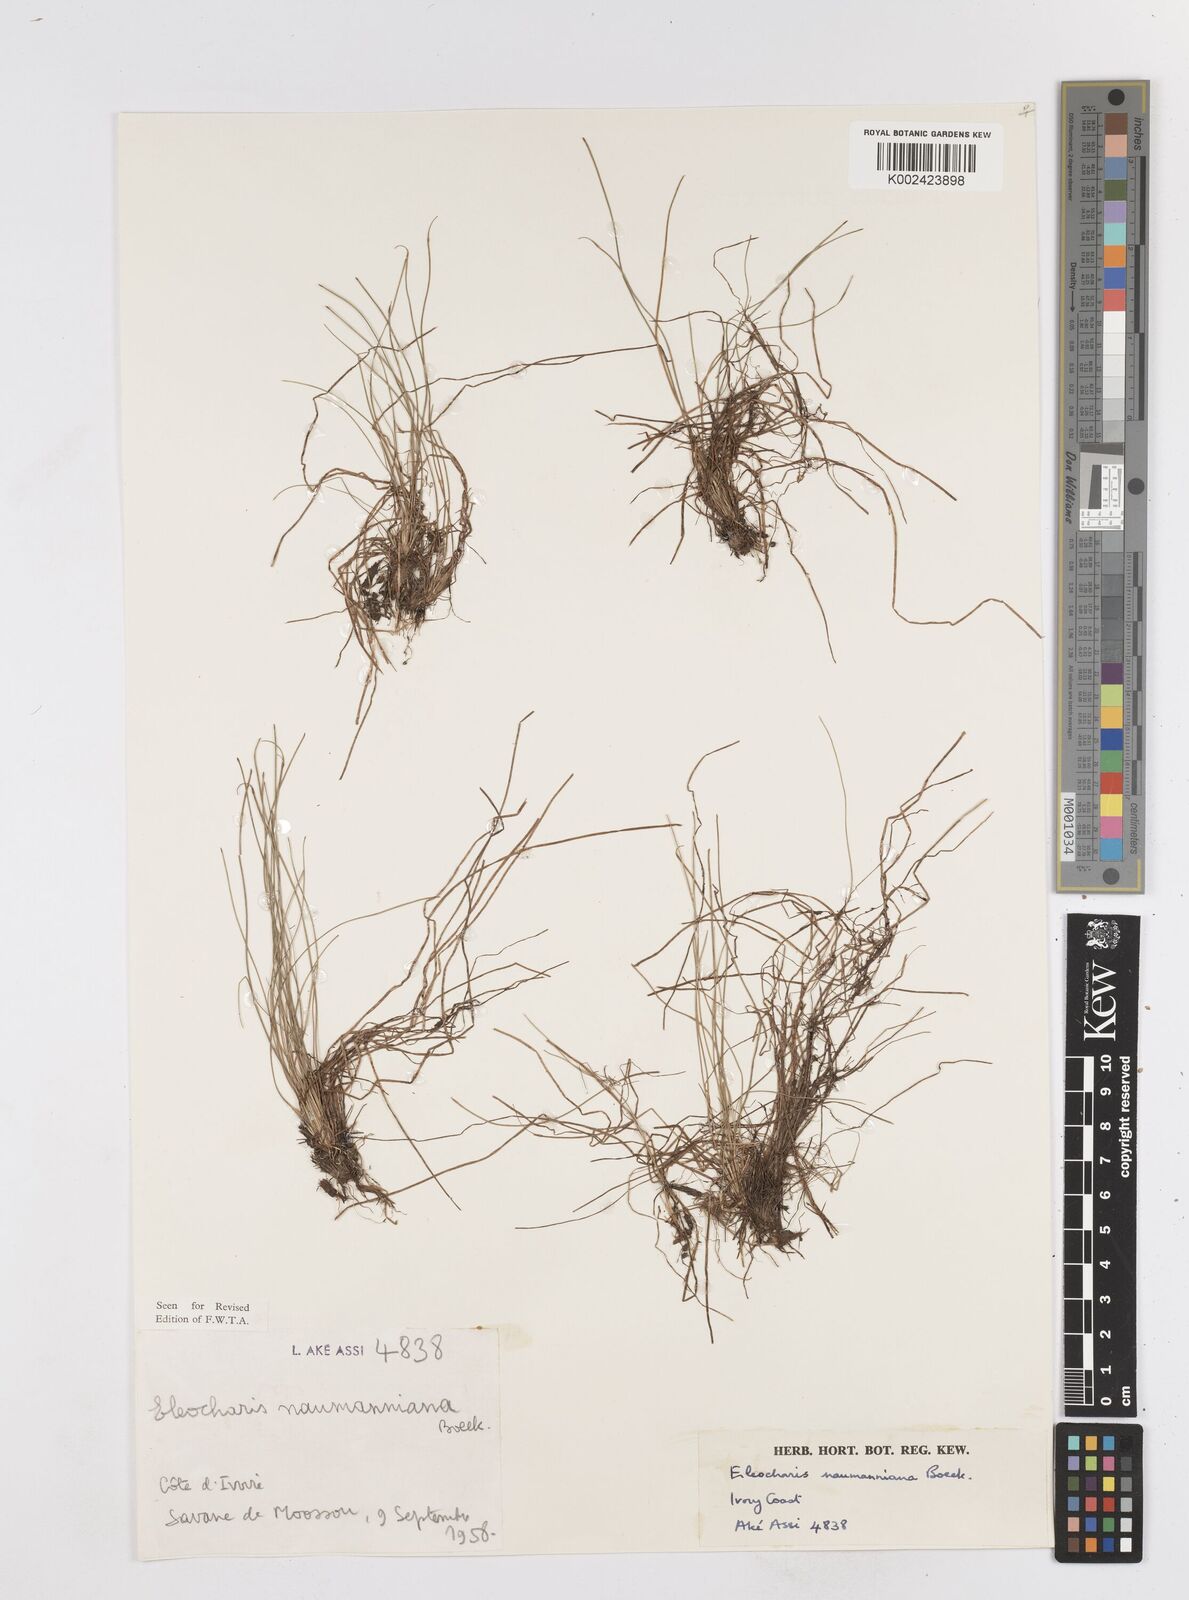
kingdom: Plantae
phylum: Tracheophyta
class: Liliopsida
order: Poales
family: Cyperaceae
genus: Eleocharis
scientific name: Eleocharis naumanniana
